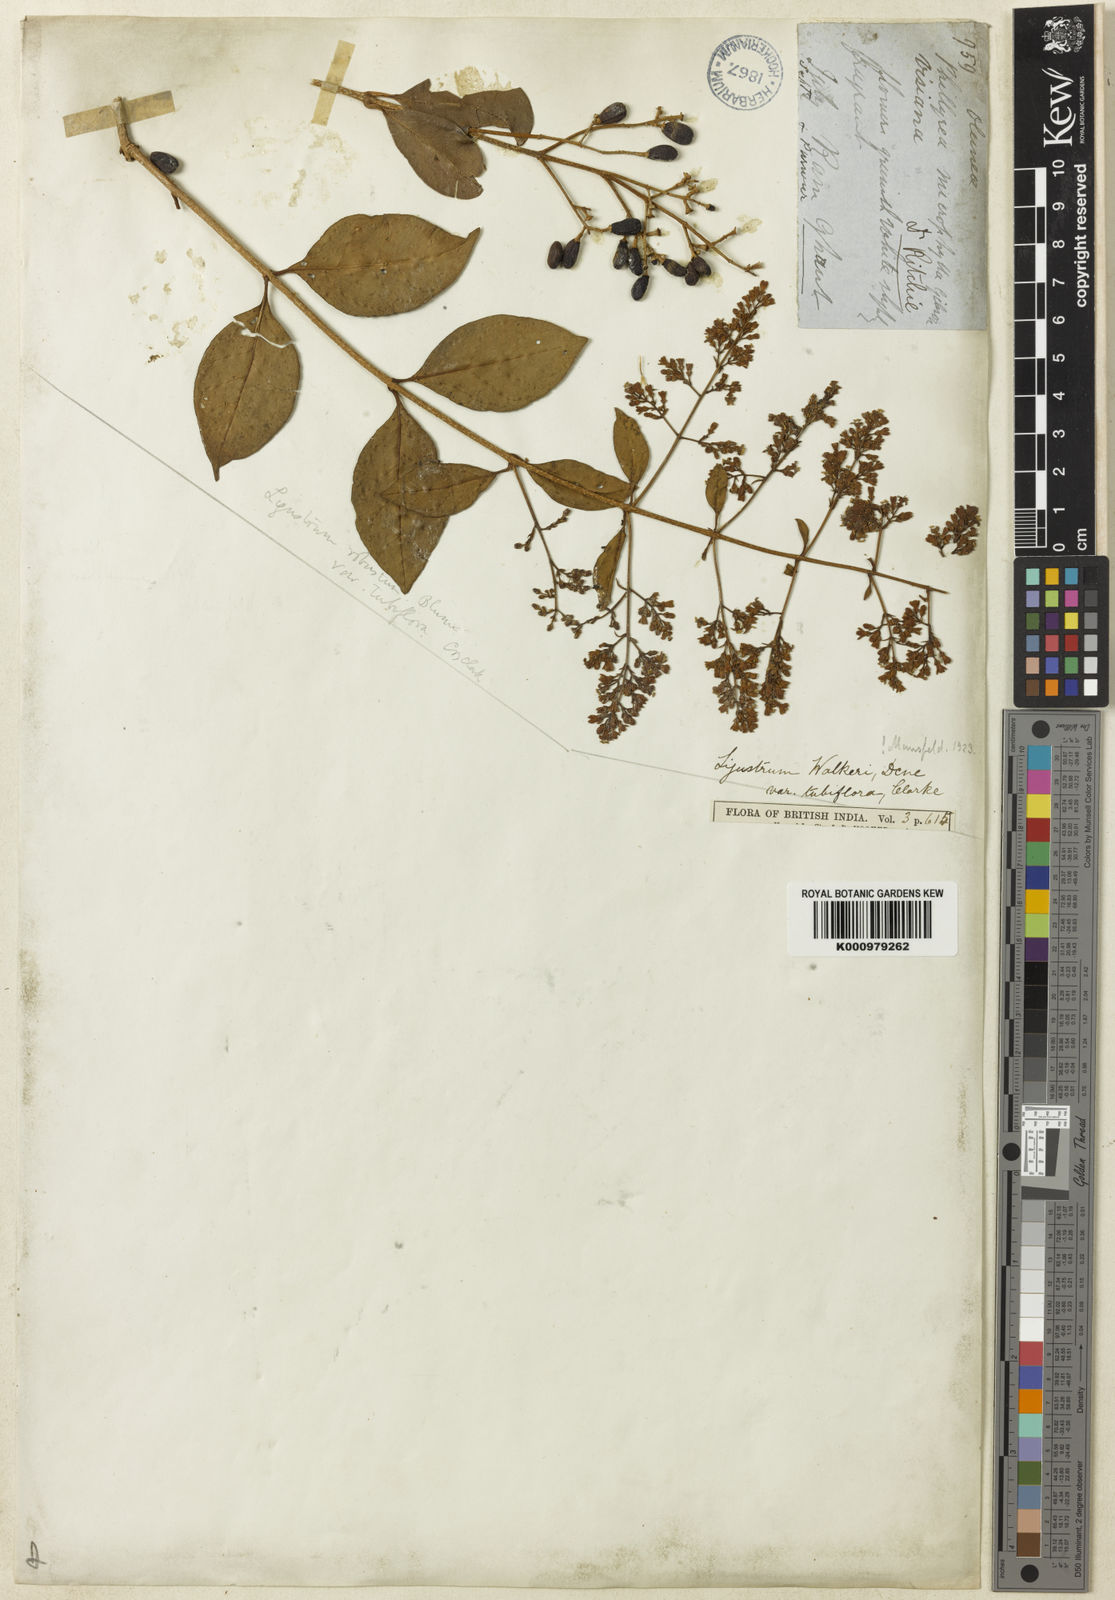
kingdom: Plantae
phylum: Tracheophyta
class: Magnoliopsida
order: Lamiales
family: Oleaceae
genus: Ligustrum
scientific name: Ligustrum robustum
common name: Tree privet
